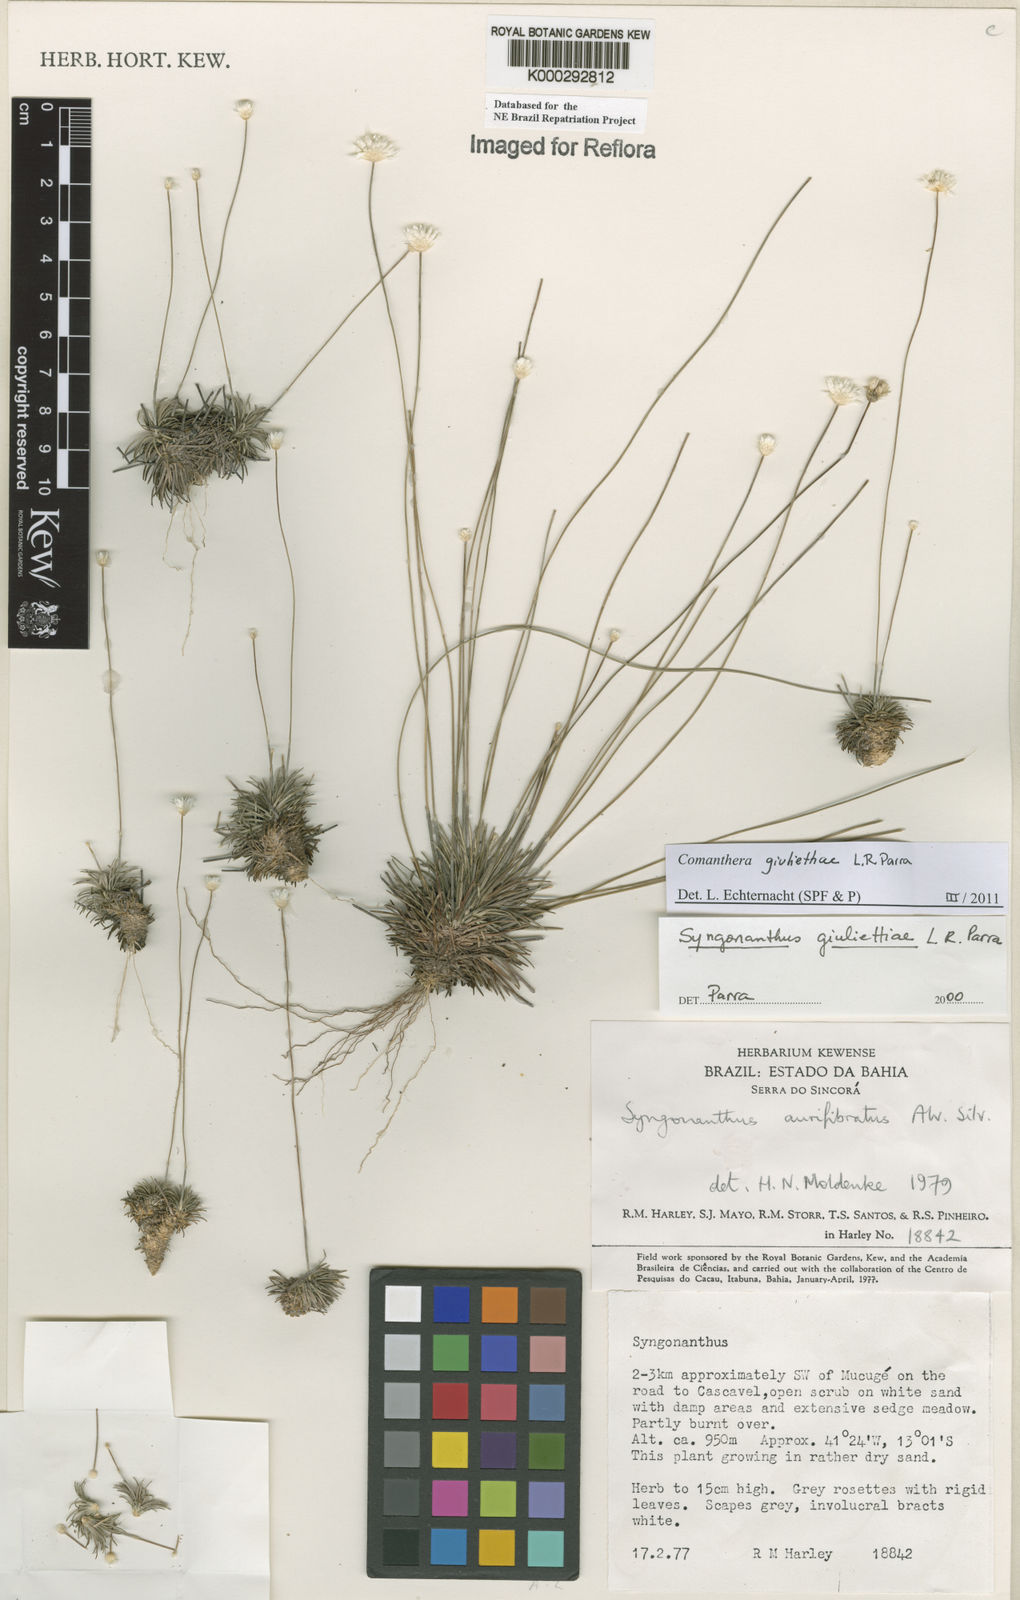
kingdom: Plantae
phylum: Tracheophyta
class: Liliopsida
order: Poales
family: Eriocaulaceae
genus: Syngonanthus
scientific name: Syngonanthus
